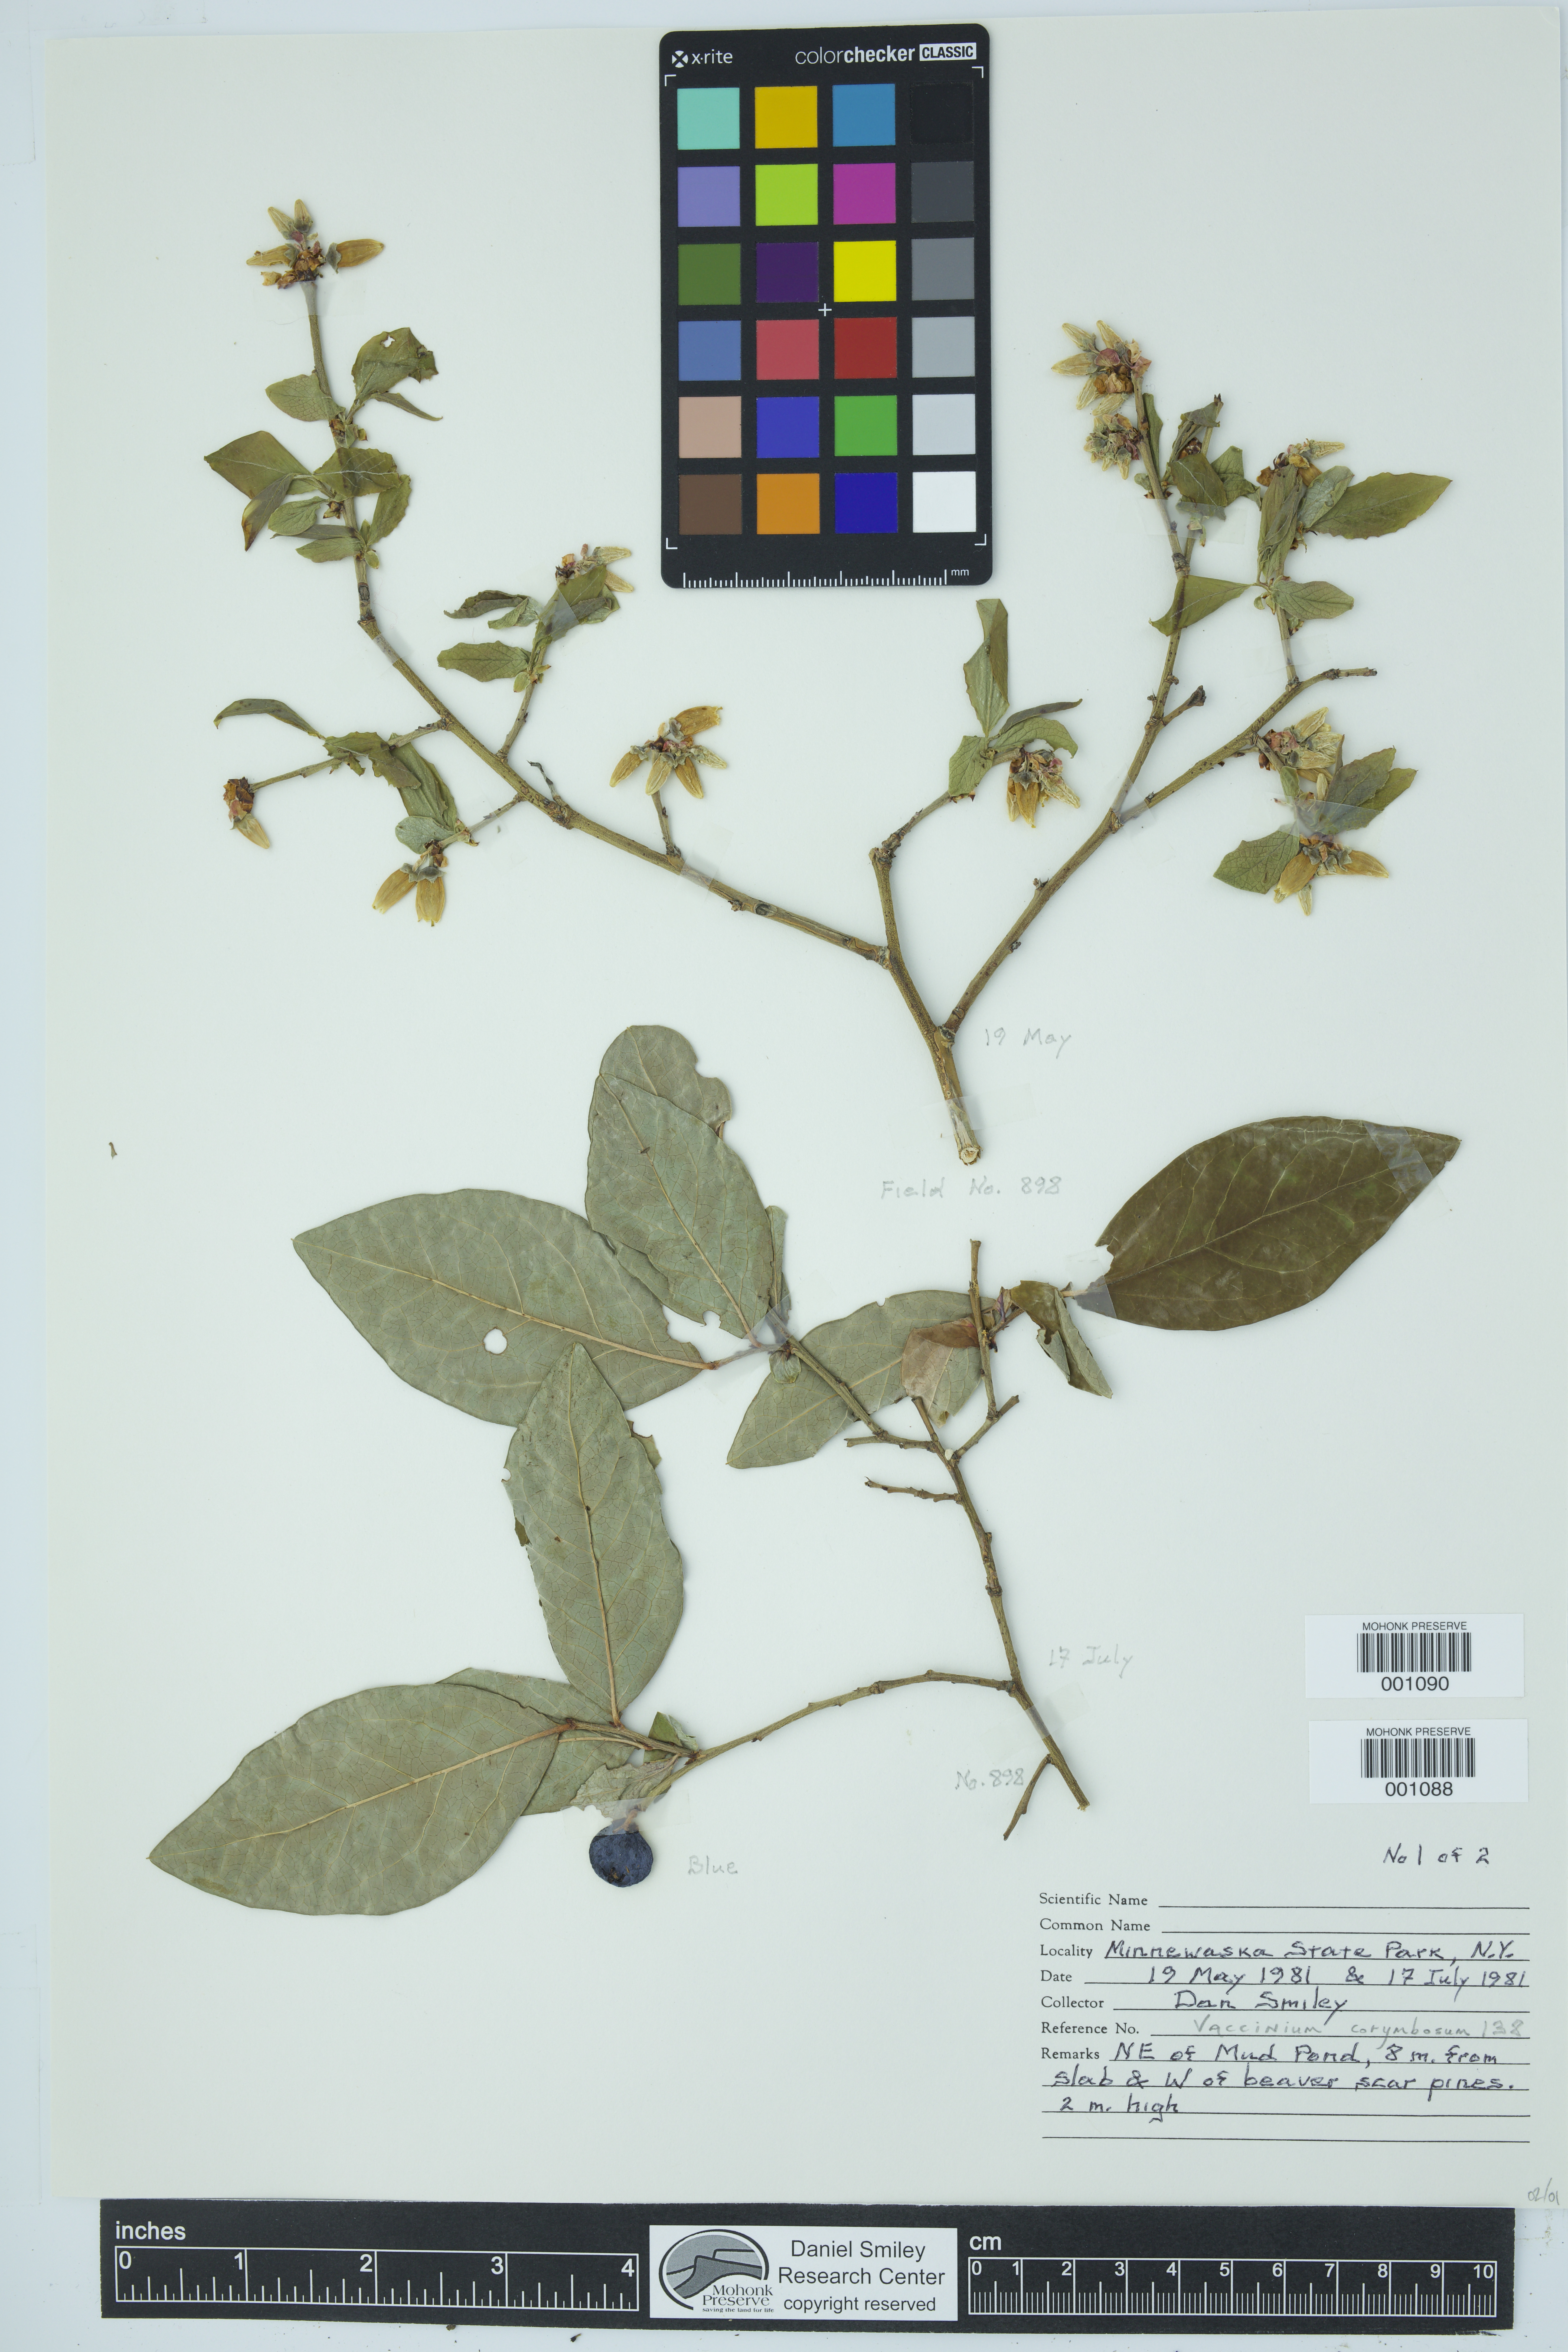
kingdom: Plantae
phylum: Tracheophyta
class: Magnoliopsida
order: Ericales
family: Ericaceae
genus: Vaccinium
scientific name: Vaccinium corymbosum
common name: Blueberry
